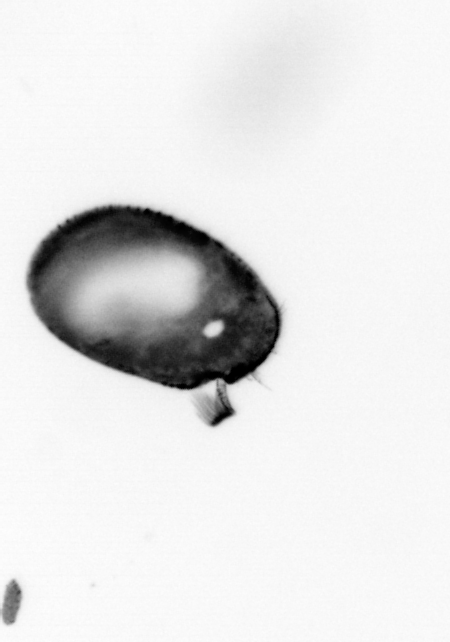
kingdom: Animalia
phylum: Arthropoda
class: Copepoda
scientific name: Copepoda
